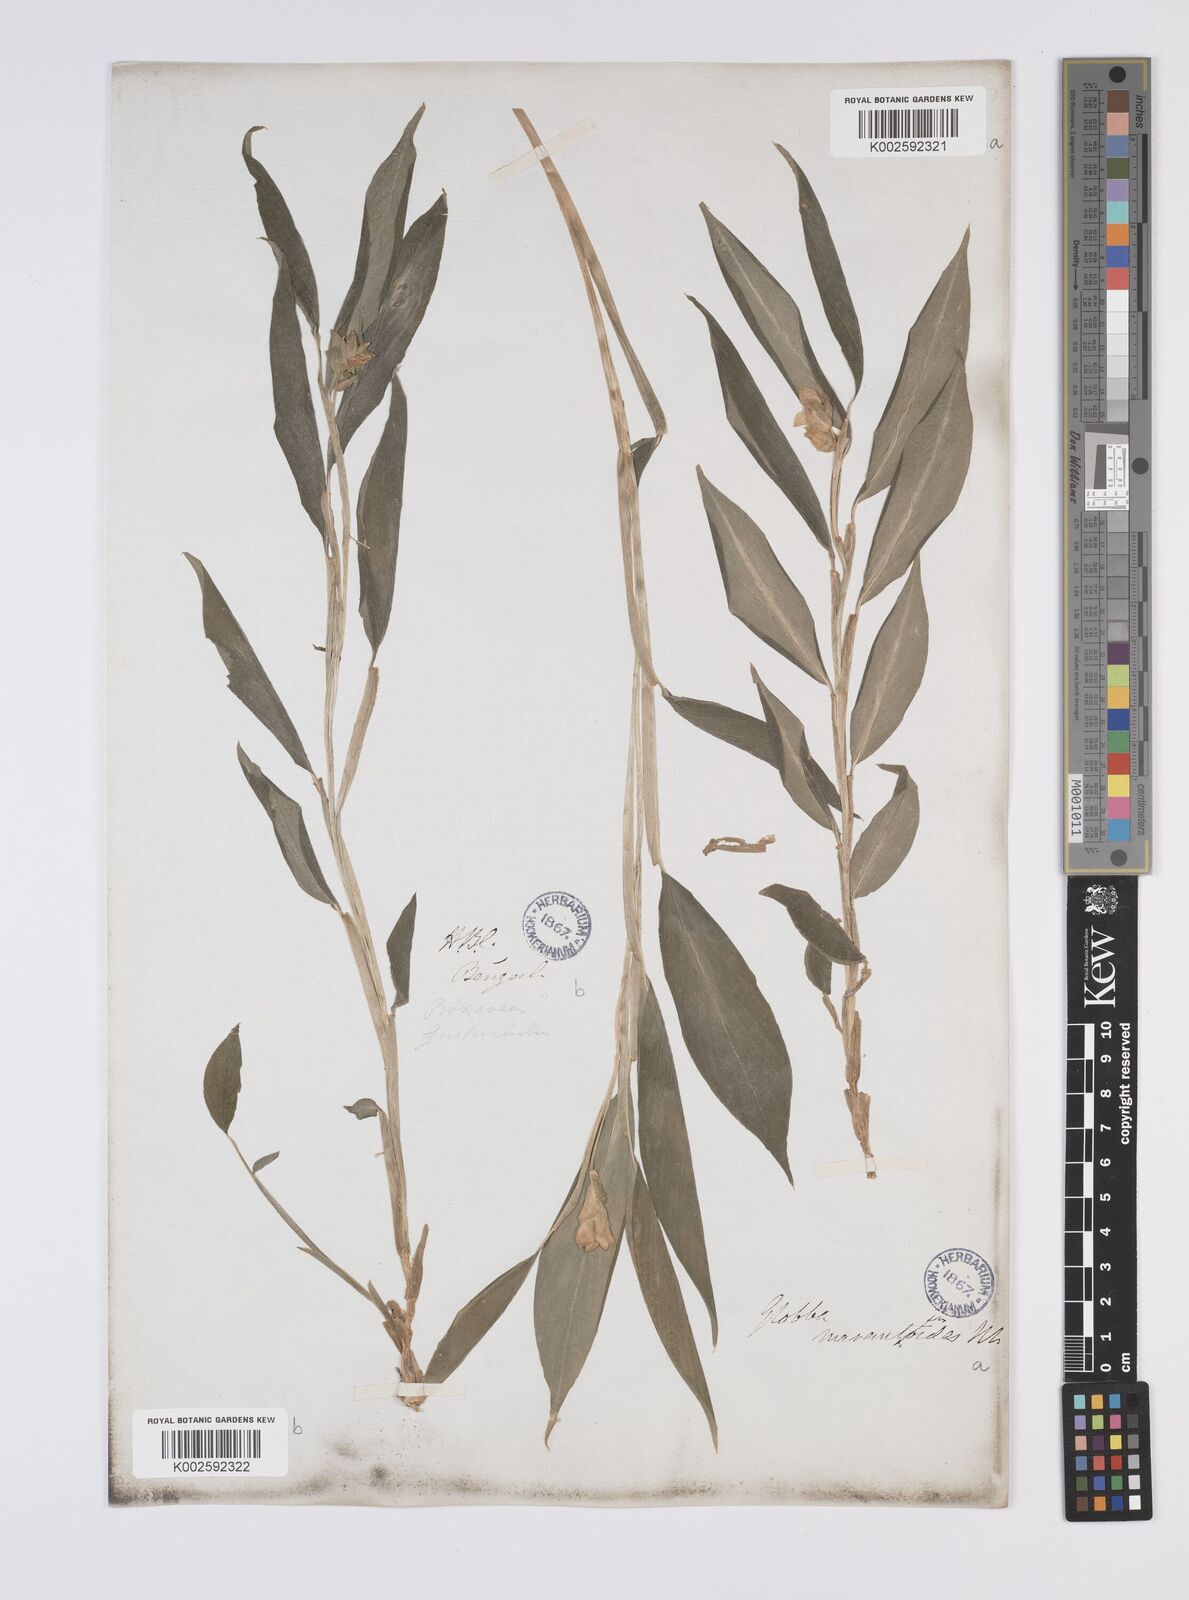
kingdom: Plantae
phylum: Tracheophyta
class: Liliopsida
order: Zingiberales
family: Zingiberaceae
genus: Globba
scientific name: Globba marantina
